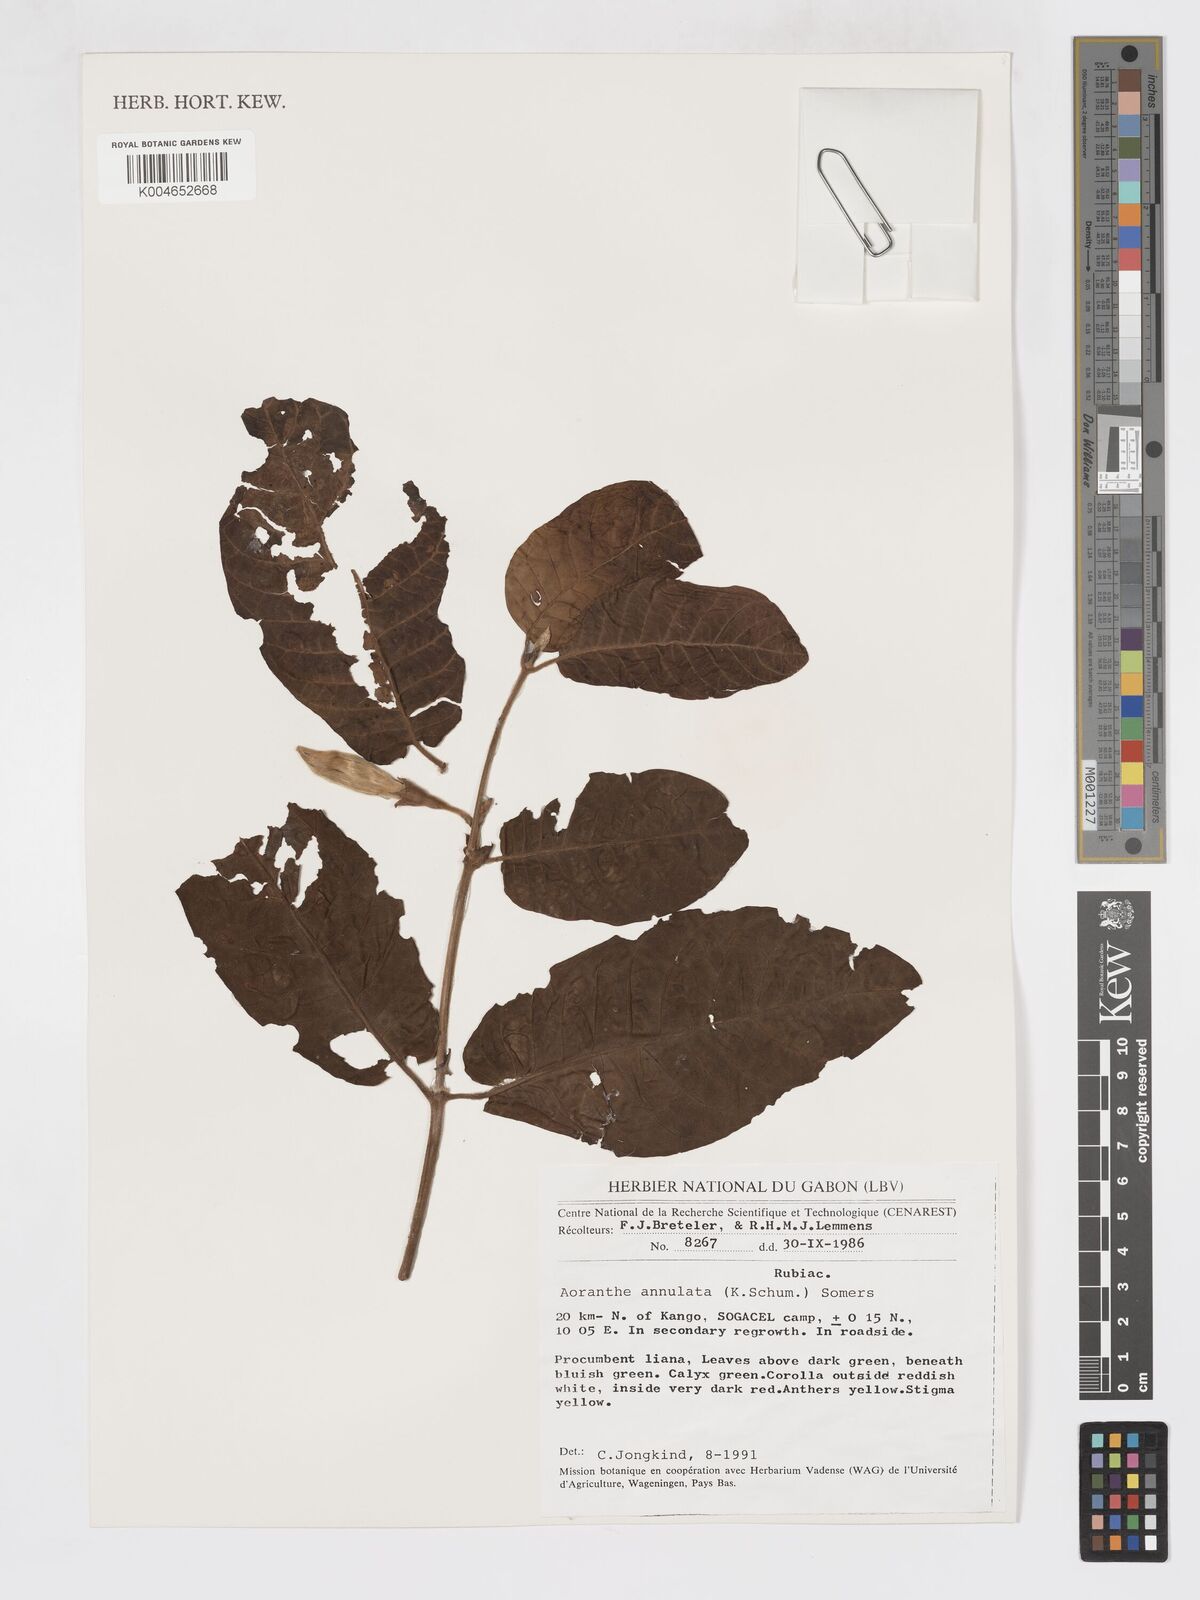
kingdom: Plantae
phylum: Tracheophyta
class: Magnoliopsida
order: Gentianales
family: Rubiaceae
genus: Aoranthe
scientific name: Aoranthe annulata
